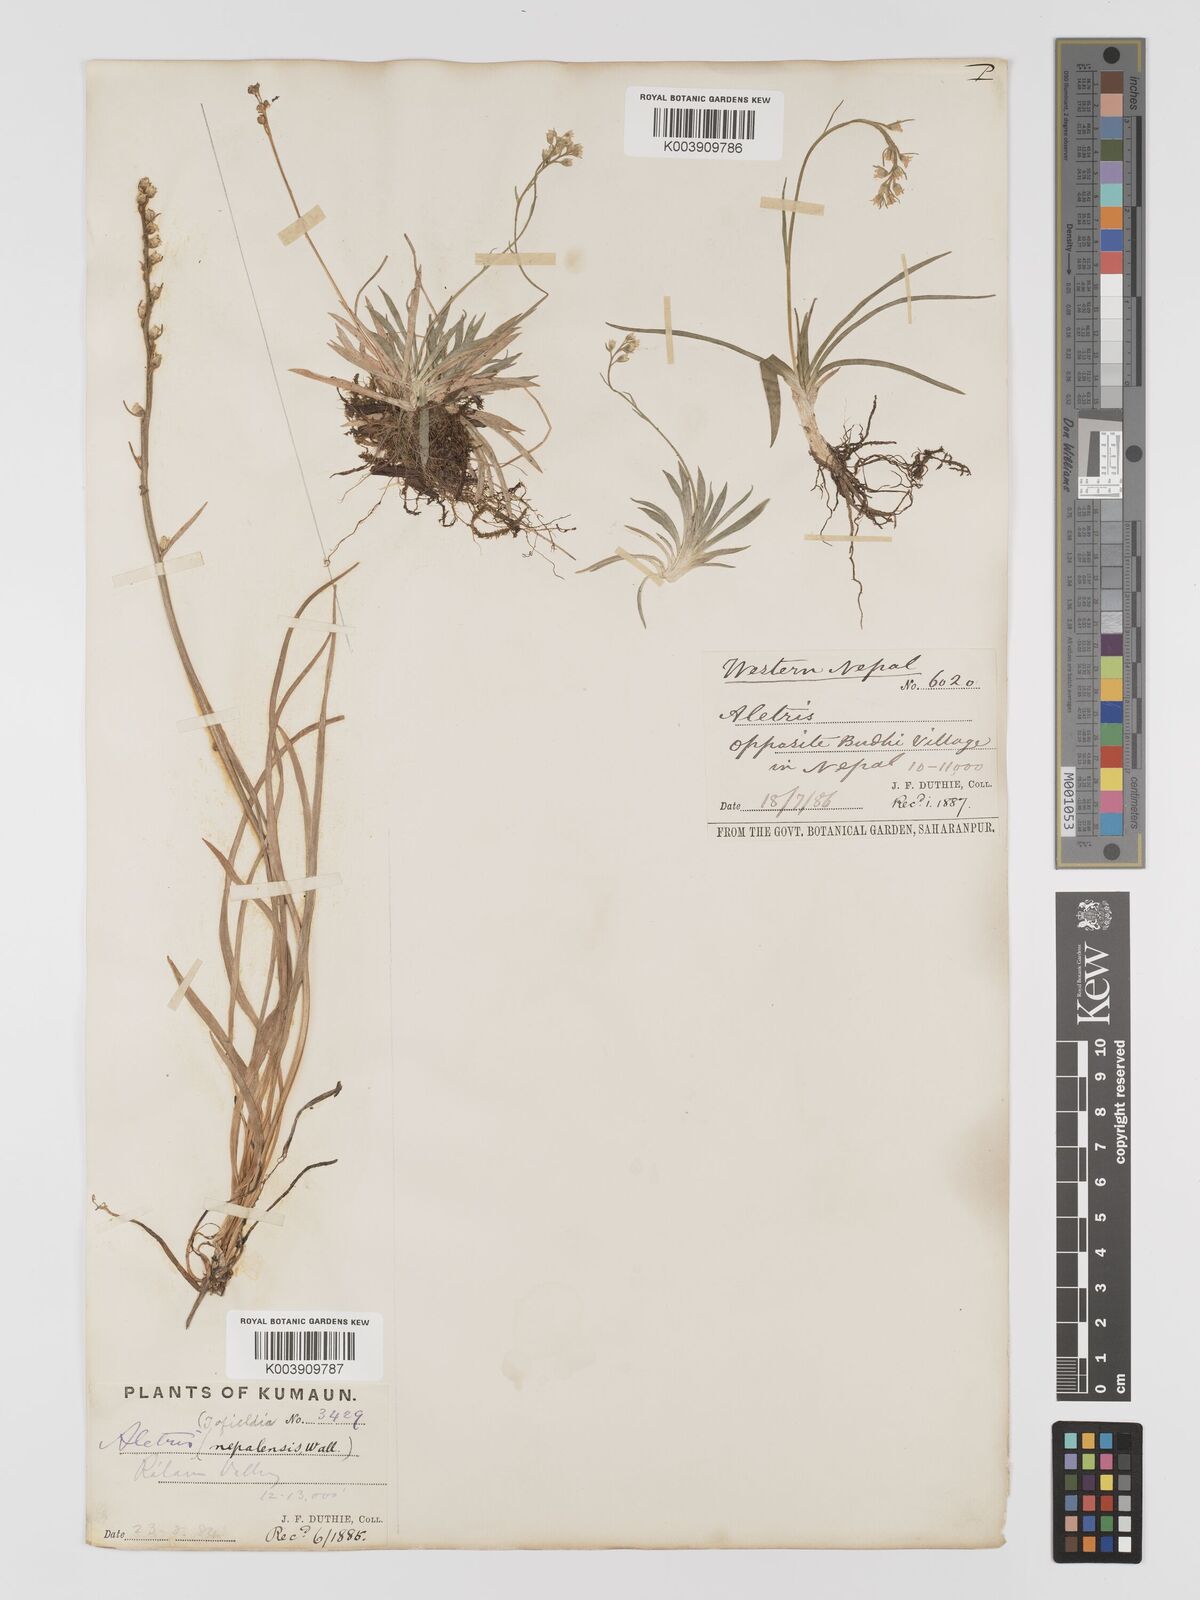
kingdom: Plantae
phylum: Tracheophyta
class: Liliopsida
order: Dioscoreales
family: Nartheciaceae
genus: Aletris
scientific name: Aletris pauciflora
